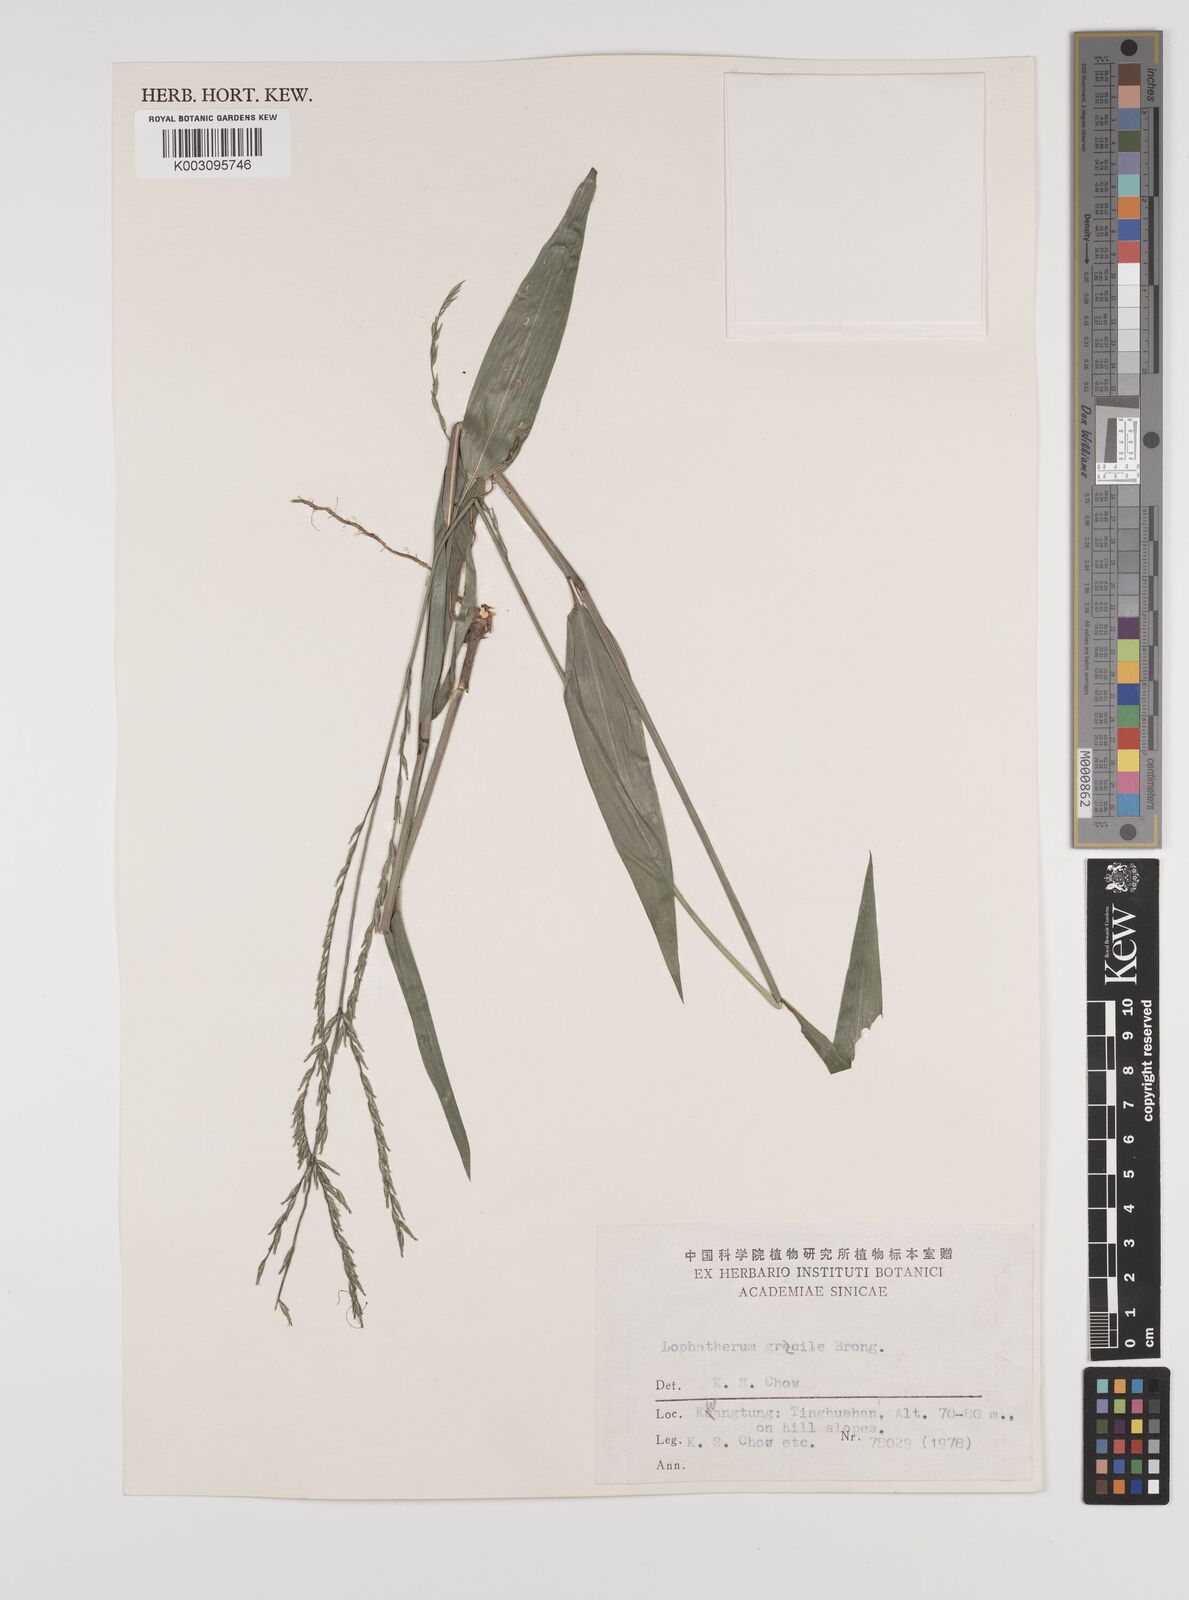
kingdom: Plantae
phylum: Tracheophyta
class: Liliopsida
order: Poales
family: Poaceae
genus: Lophatherum
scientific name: Lophatherum gracile
